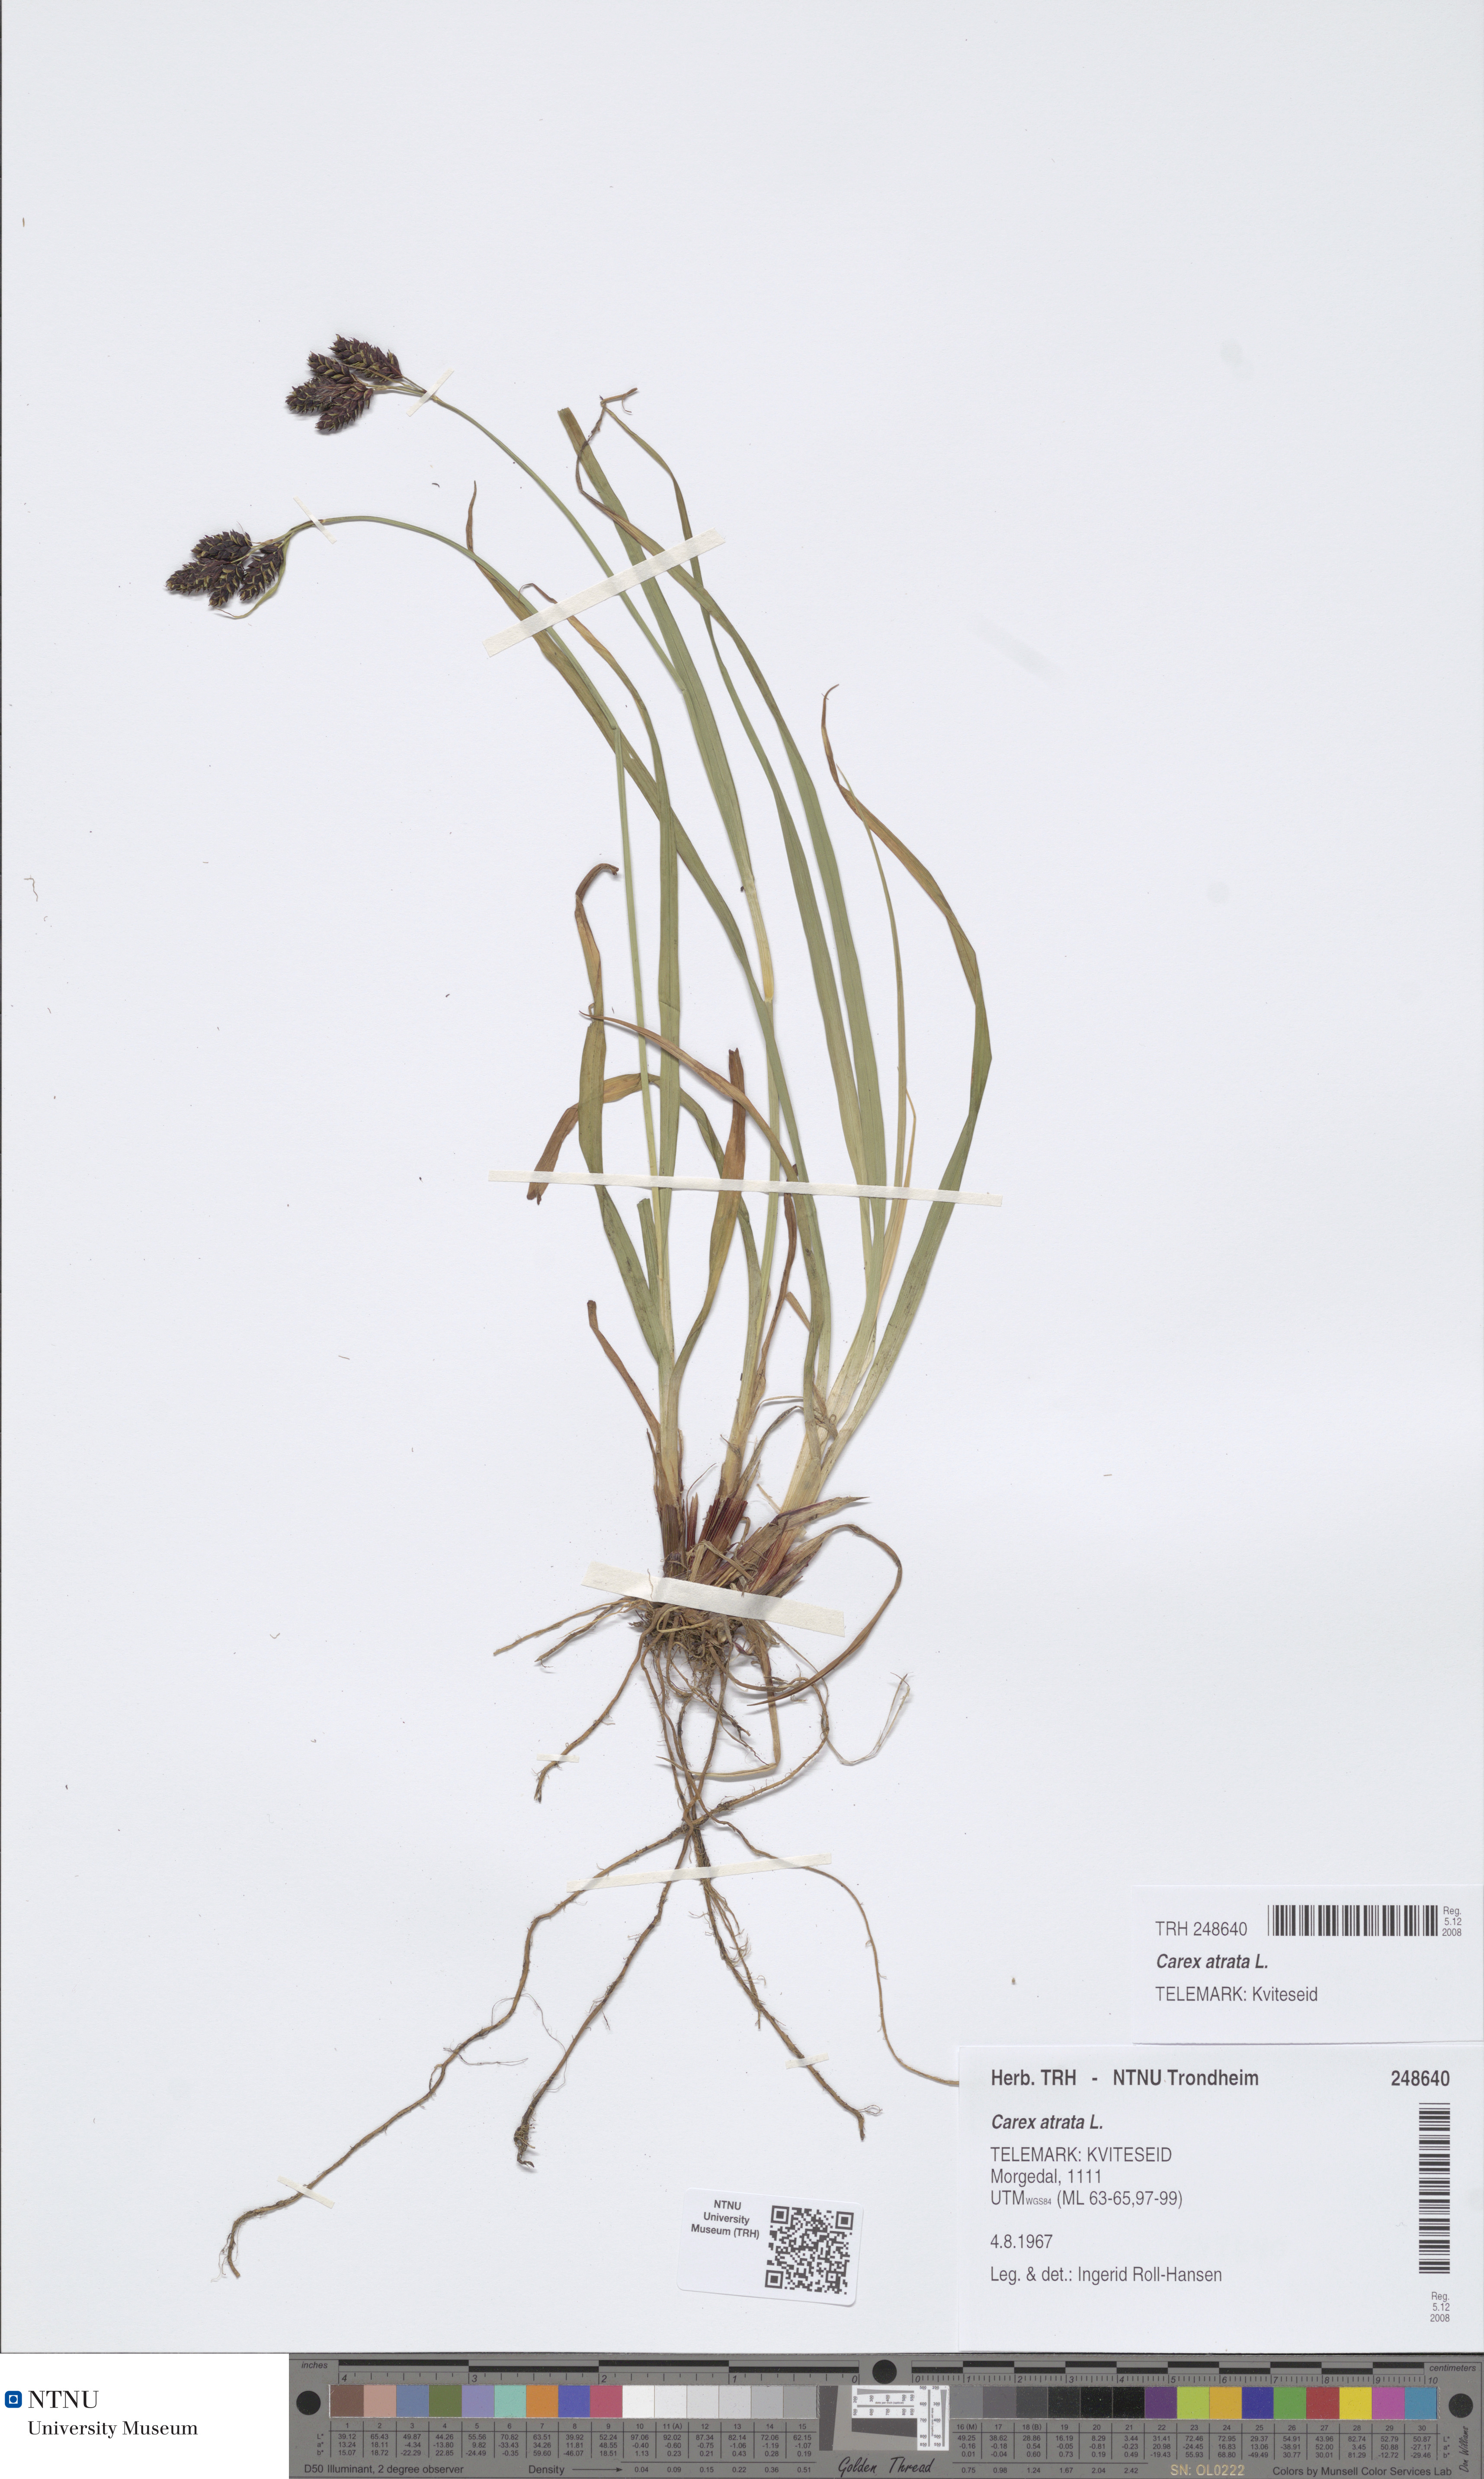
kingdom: Plantae
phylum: Tracheophyta
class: Liliopsida
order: Poales
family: Cyperaceae
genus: Carex
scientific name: Carex atrata
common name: Black alpine sedge
